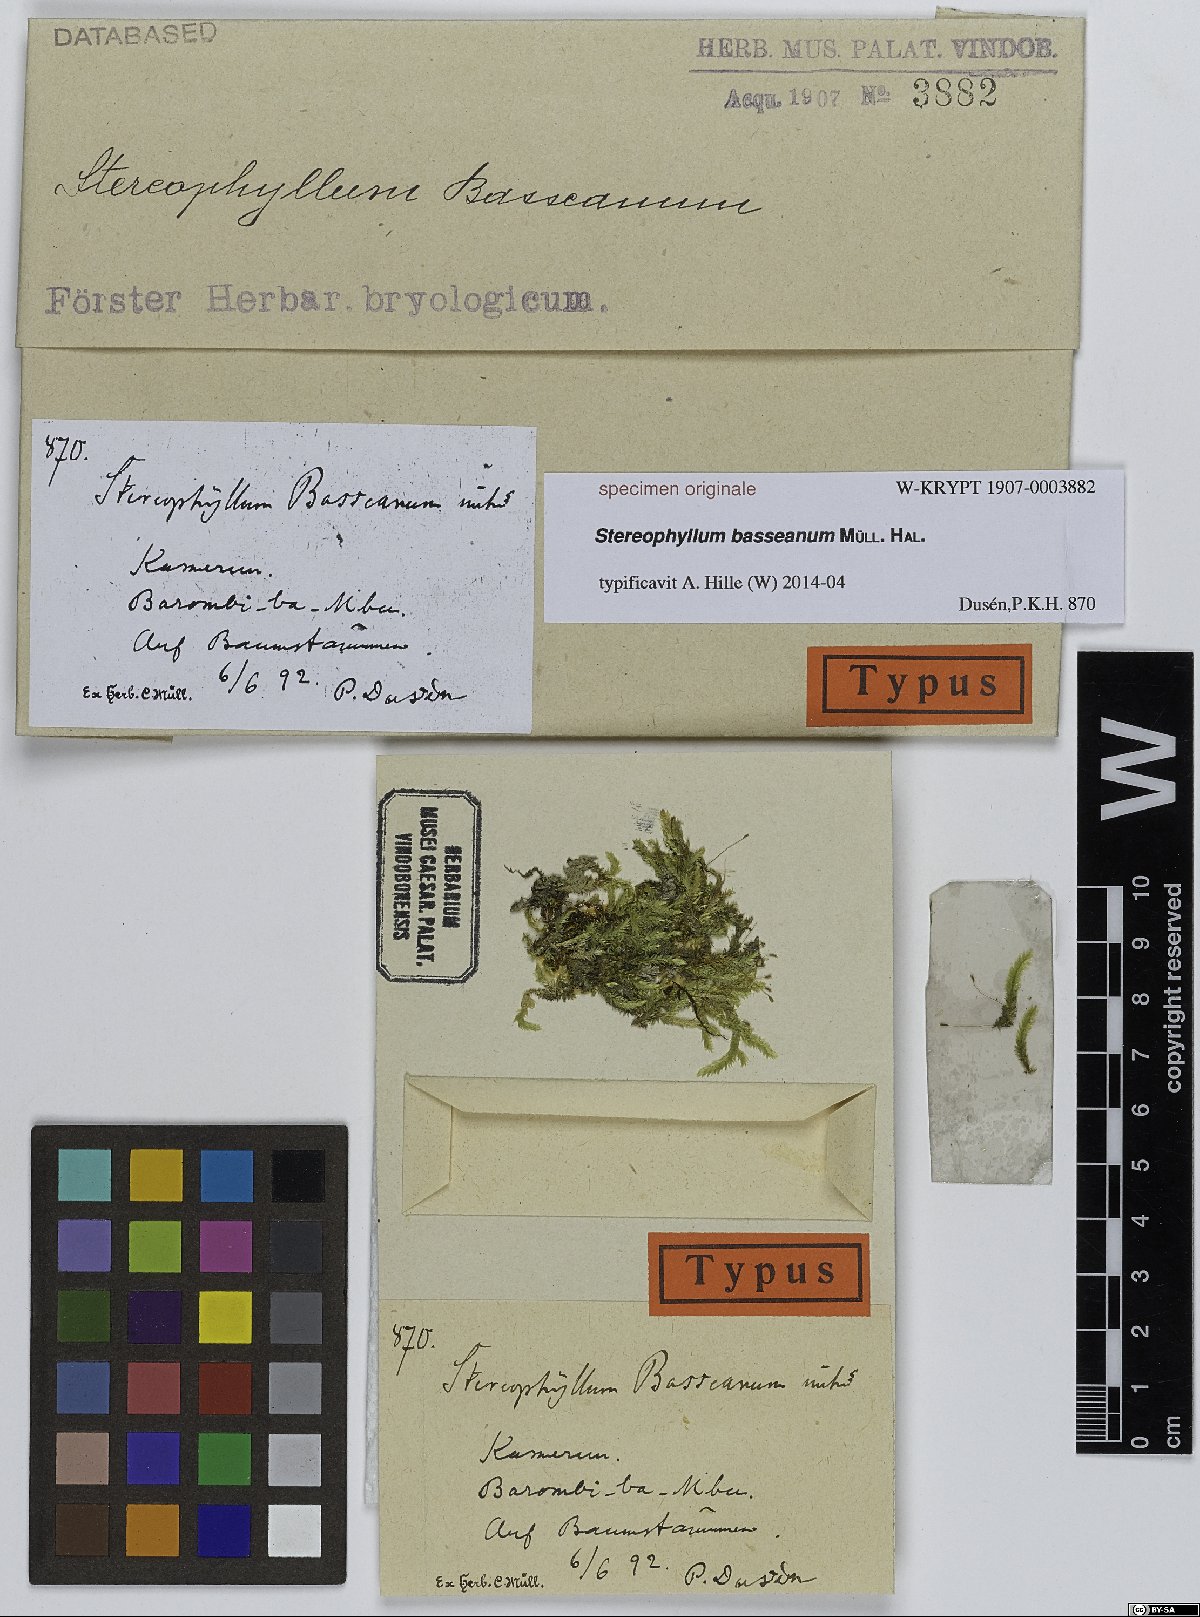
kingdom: Plantae
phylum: Bryophyta
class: Bryopsida
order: Hypnales
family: Stereophyllaceae
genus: Stereophyllum
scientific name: Stereophyllum
